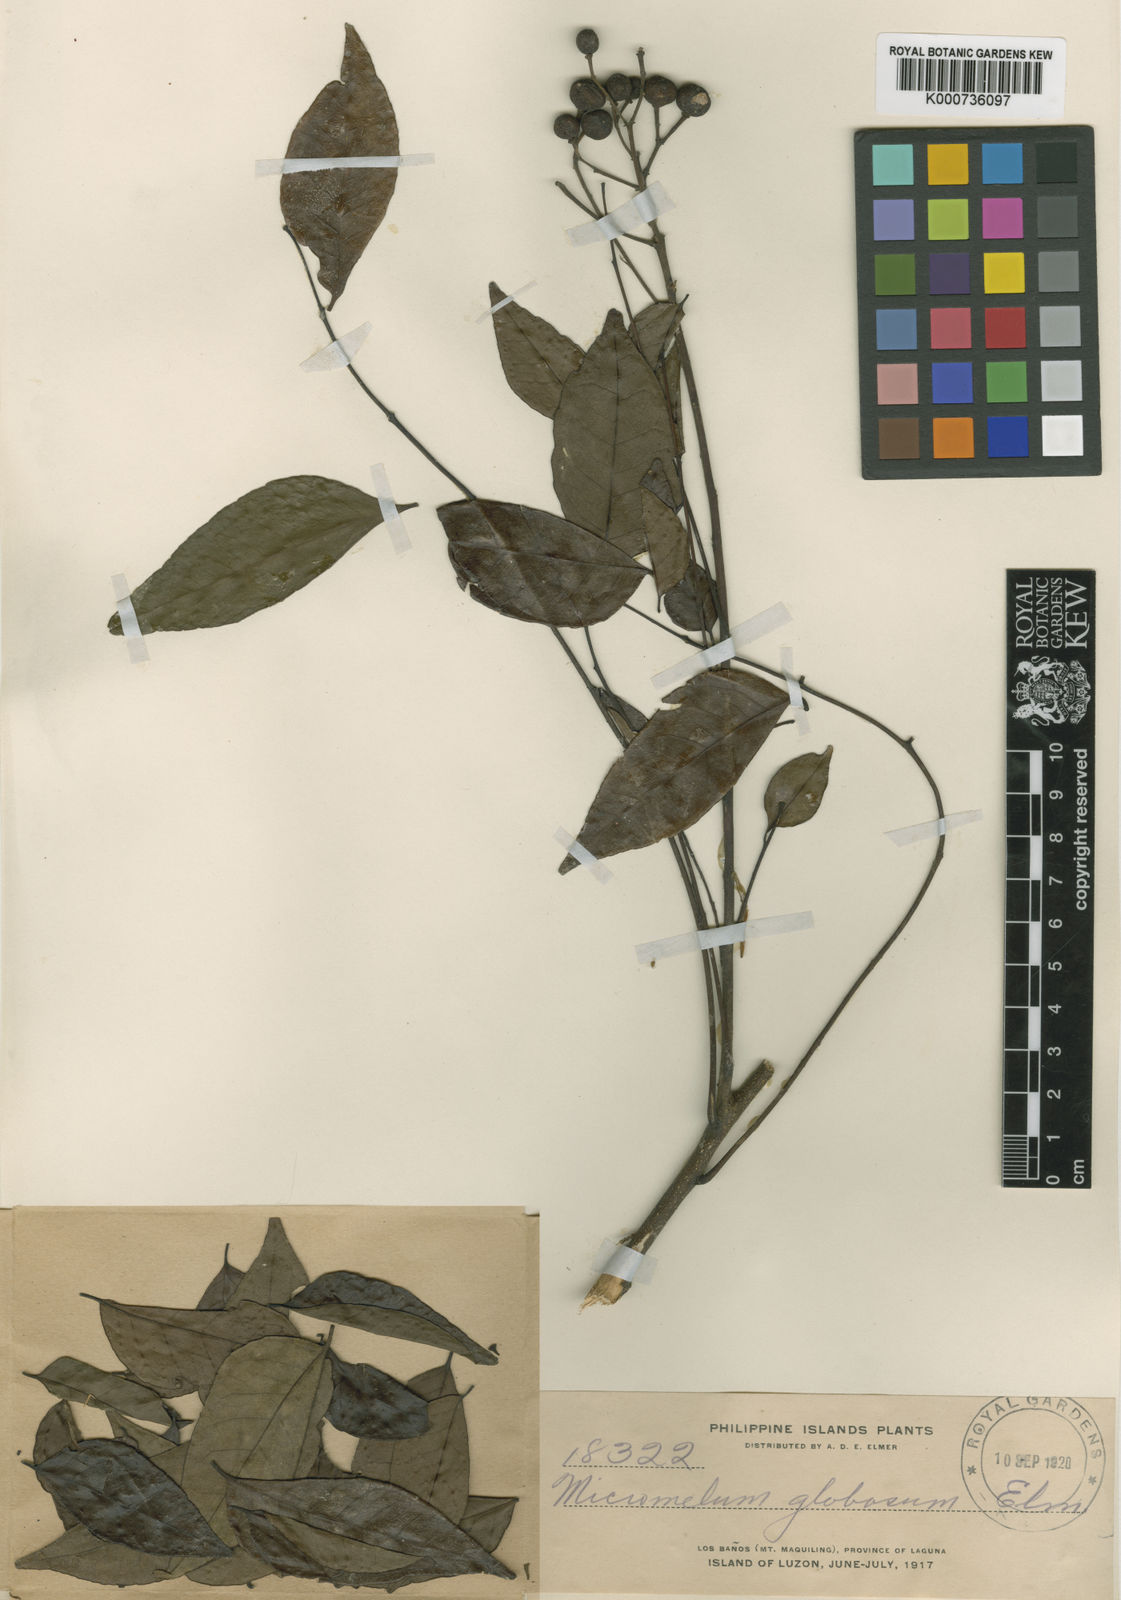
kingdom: Plantae
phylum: Tracheophyta
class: Magnoliopsida
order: Sapindales
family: Rutaceae
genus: Murraya
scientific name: Murraya crenulata
